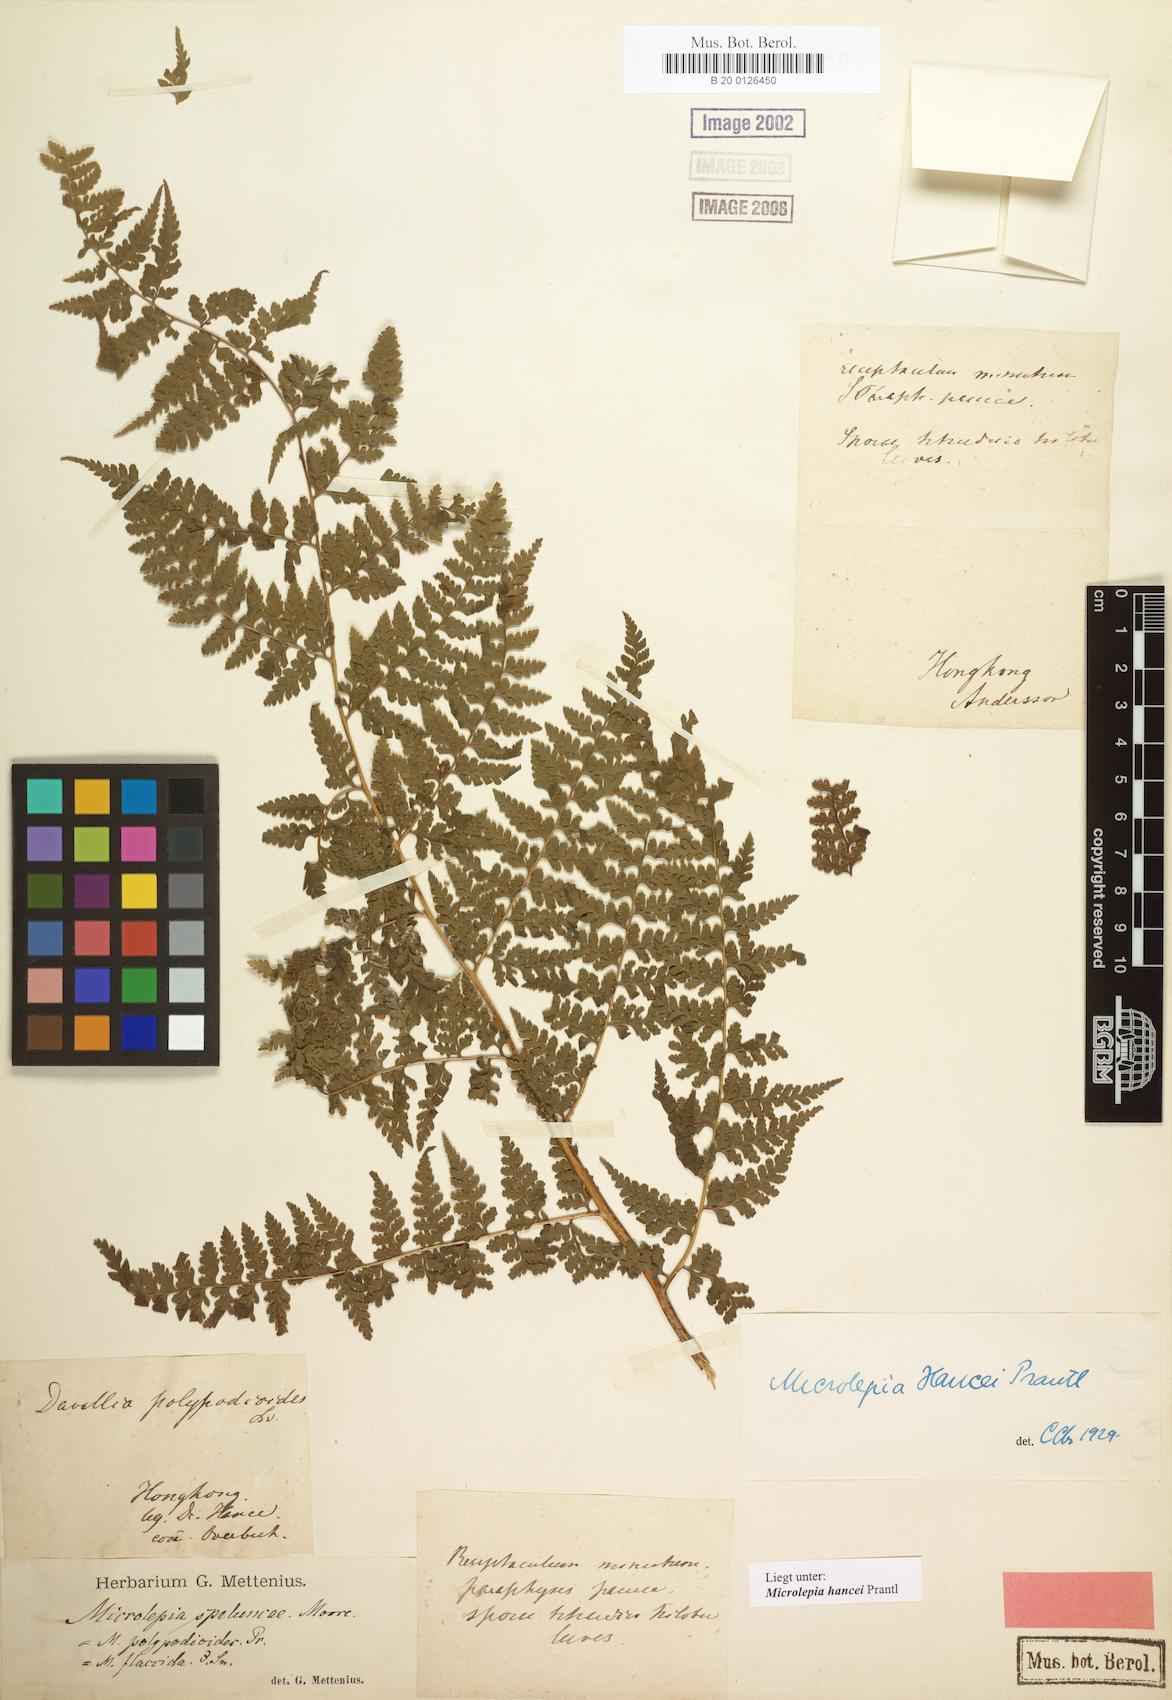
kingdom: Plantae
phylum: Tracheophyta
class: Polypodiopsida
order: Polypodiales
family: Dennstaedtiaceae
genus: Microlepia
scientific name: Microlepia nepalensis
